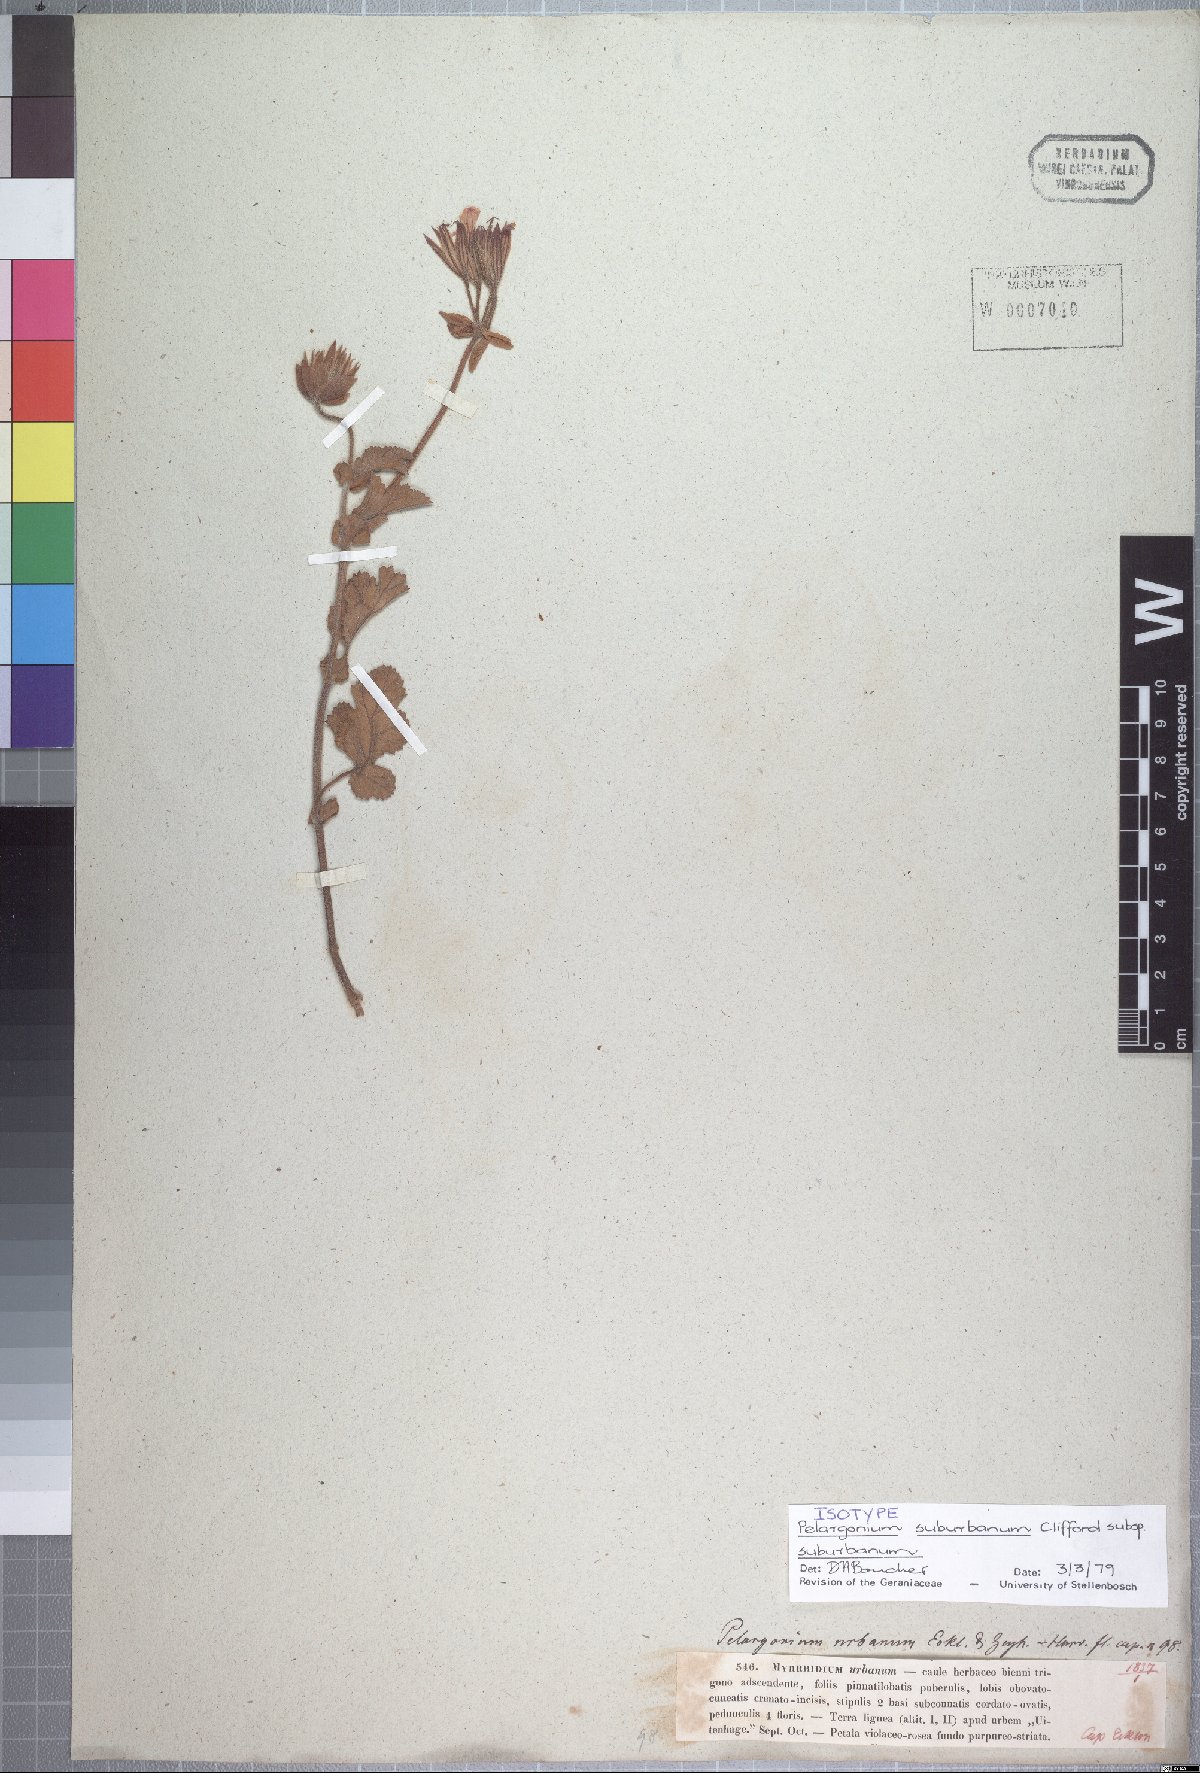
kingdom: Plantae
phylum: Tracheophyta
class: Magnoliopsida
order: Geraniales
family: Geraniaceae
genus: Pelargonium
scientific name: Pelargonium suburbanum
